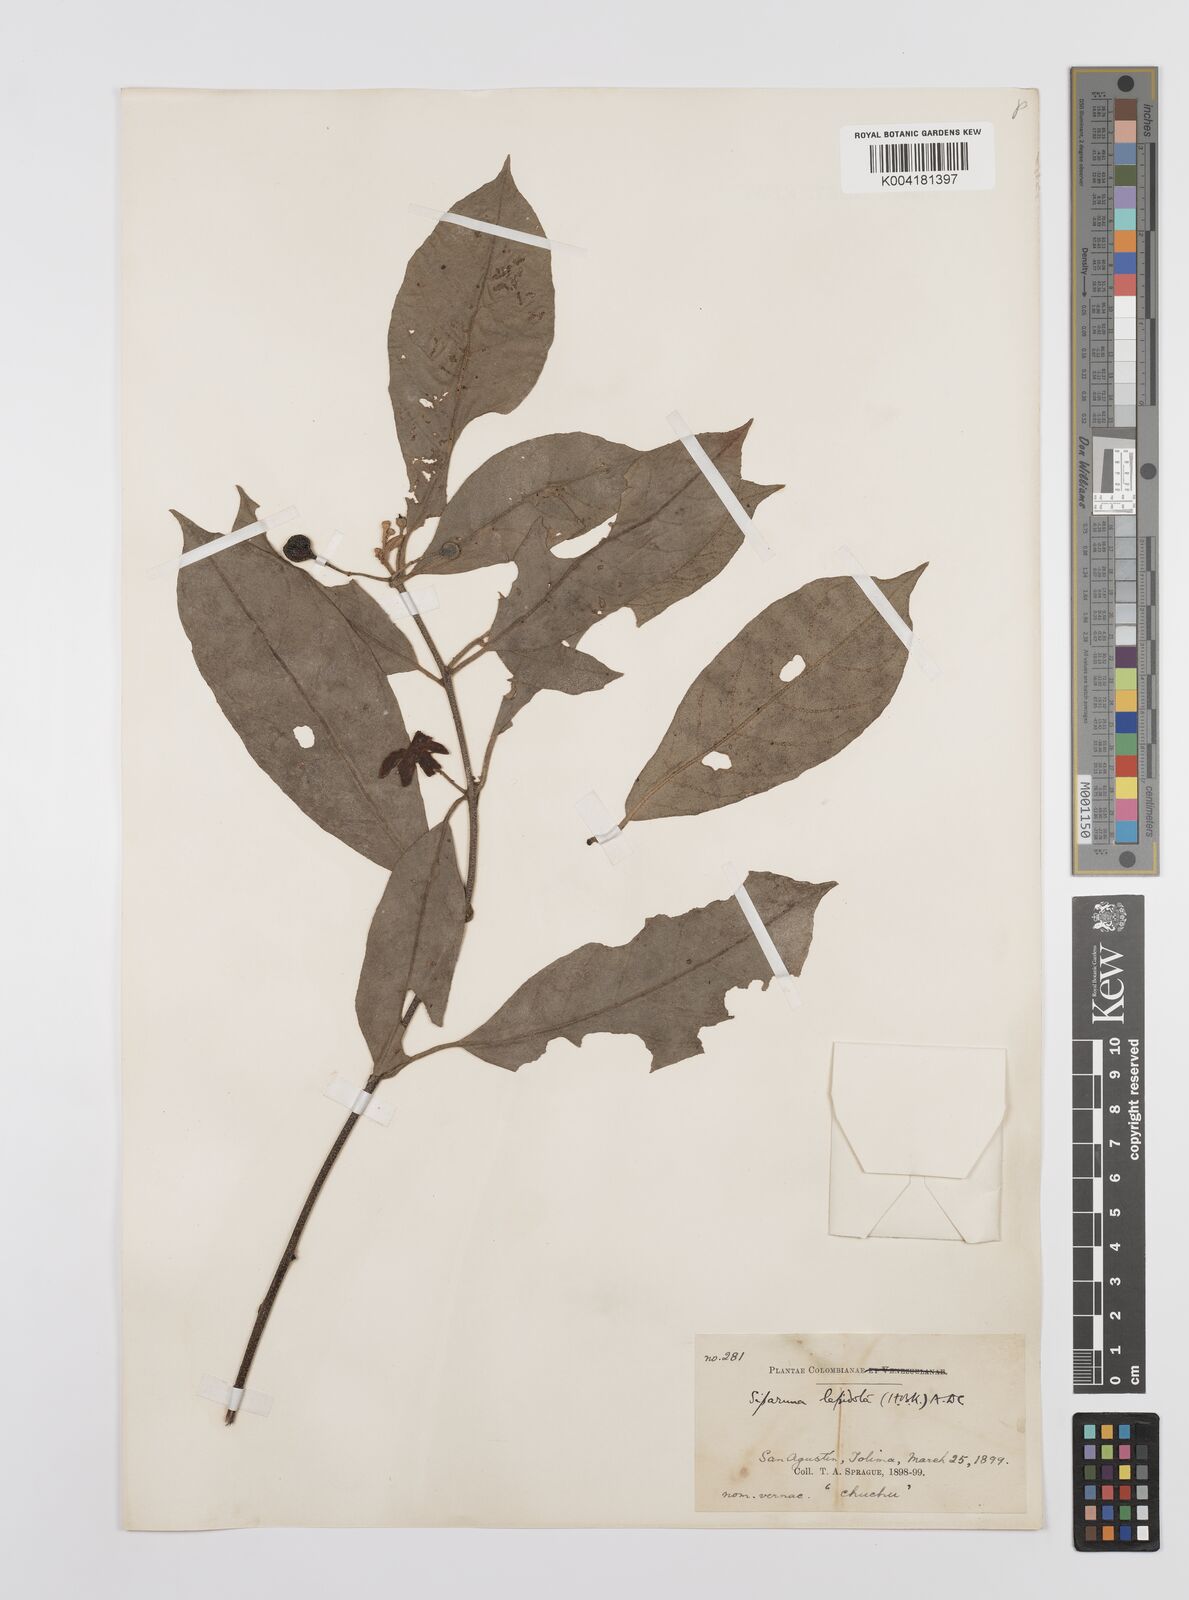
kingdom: Plantae
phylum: Tracheophyta
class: Magnoliopsida
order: Laurales
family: Siparunaceae
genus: Siparuna
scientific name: Siparuna lepidota
